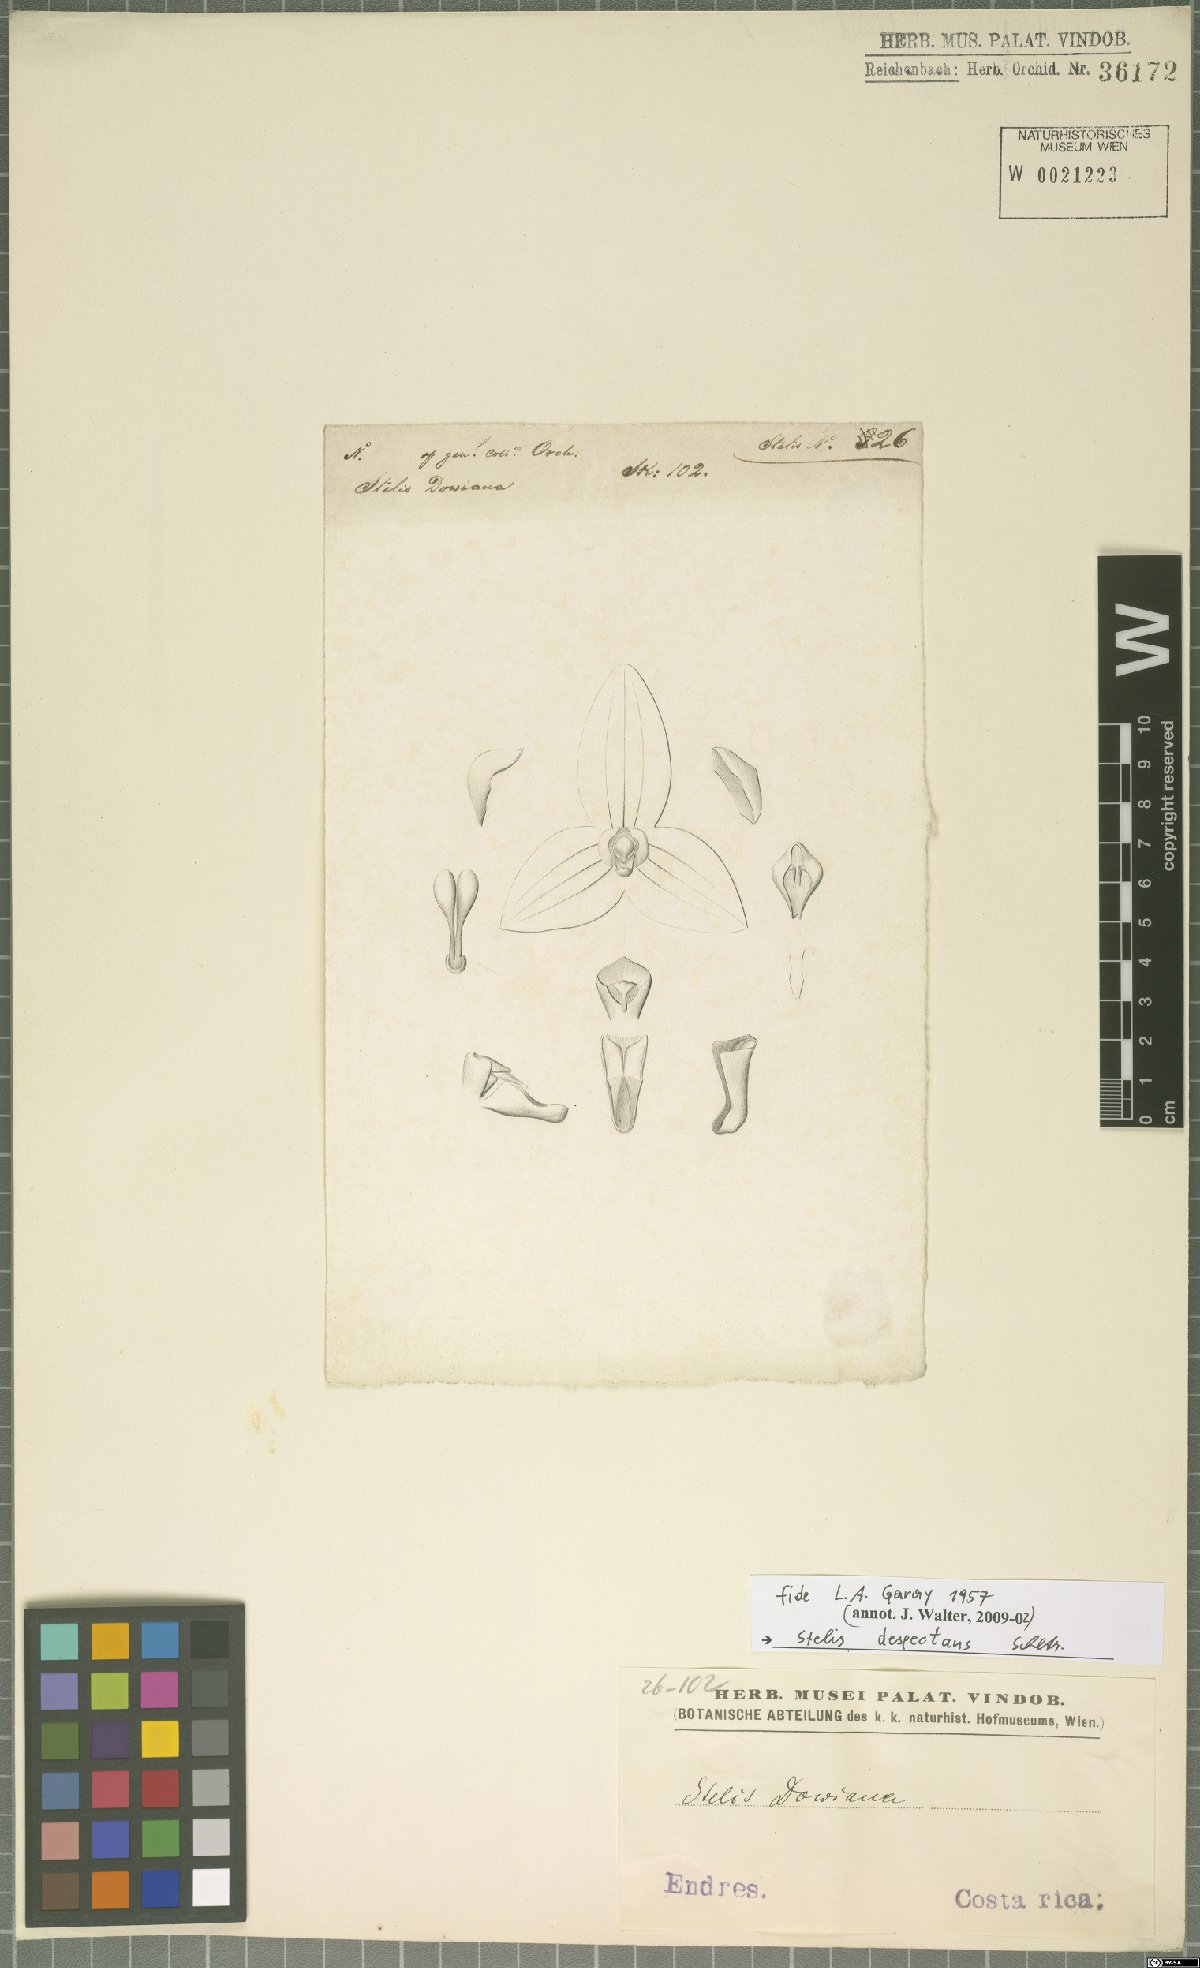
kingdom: Plantae
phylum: Tracheophyta
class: Liliopsida
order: Asparagales
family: Orchidaceae
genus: Stelis
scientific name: Stelis despectans
